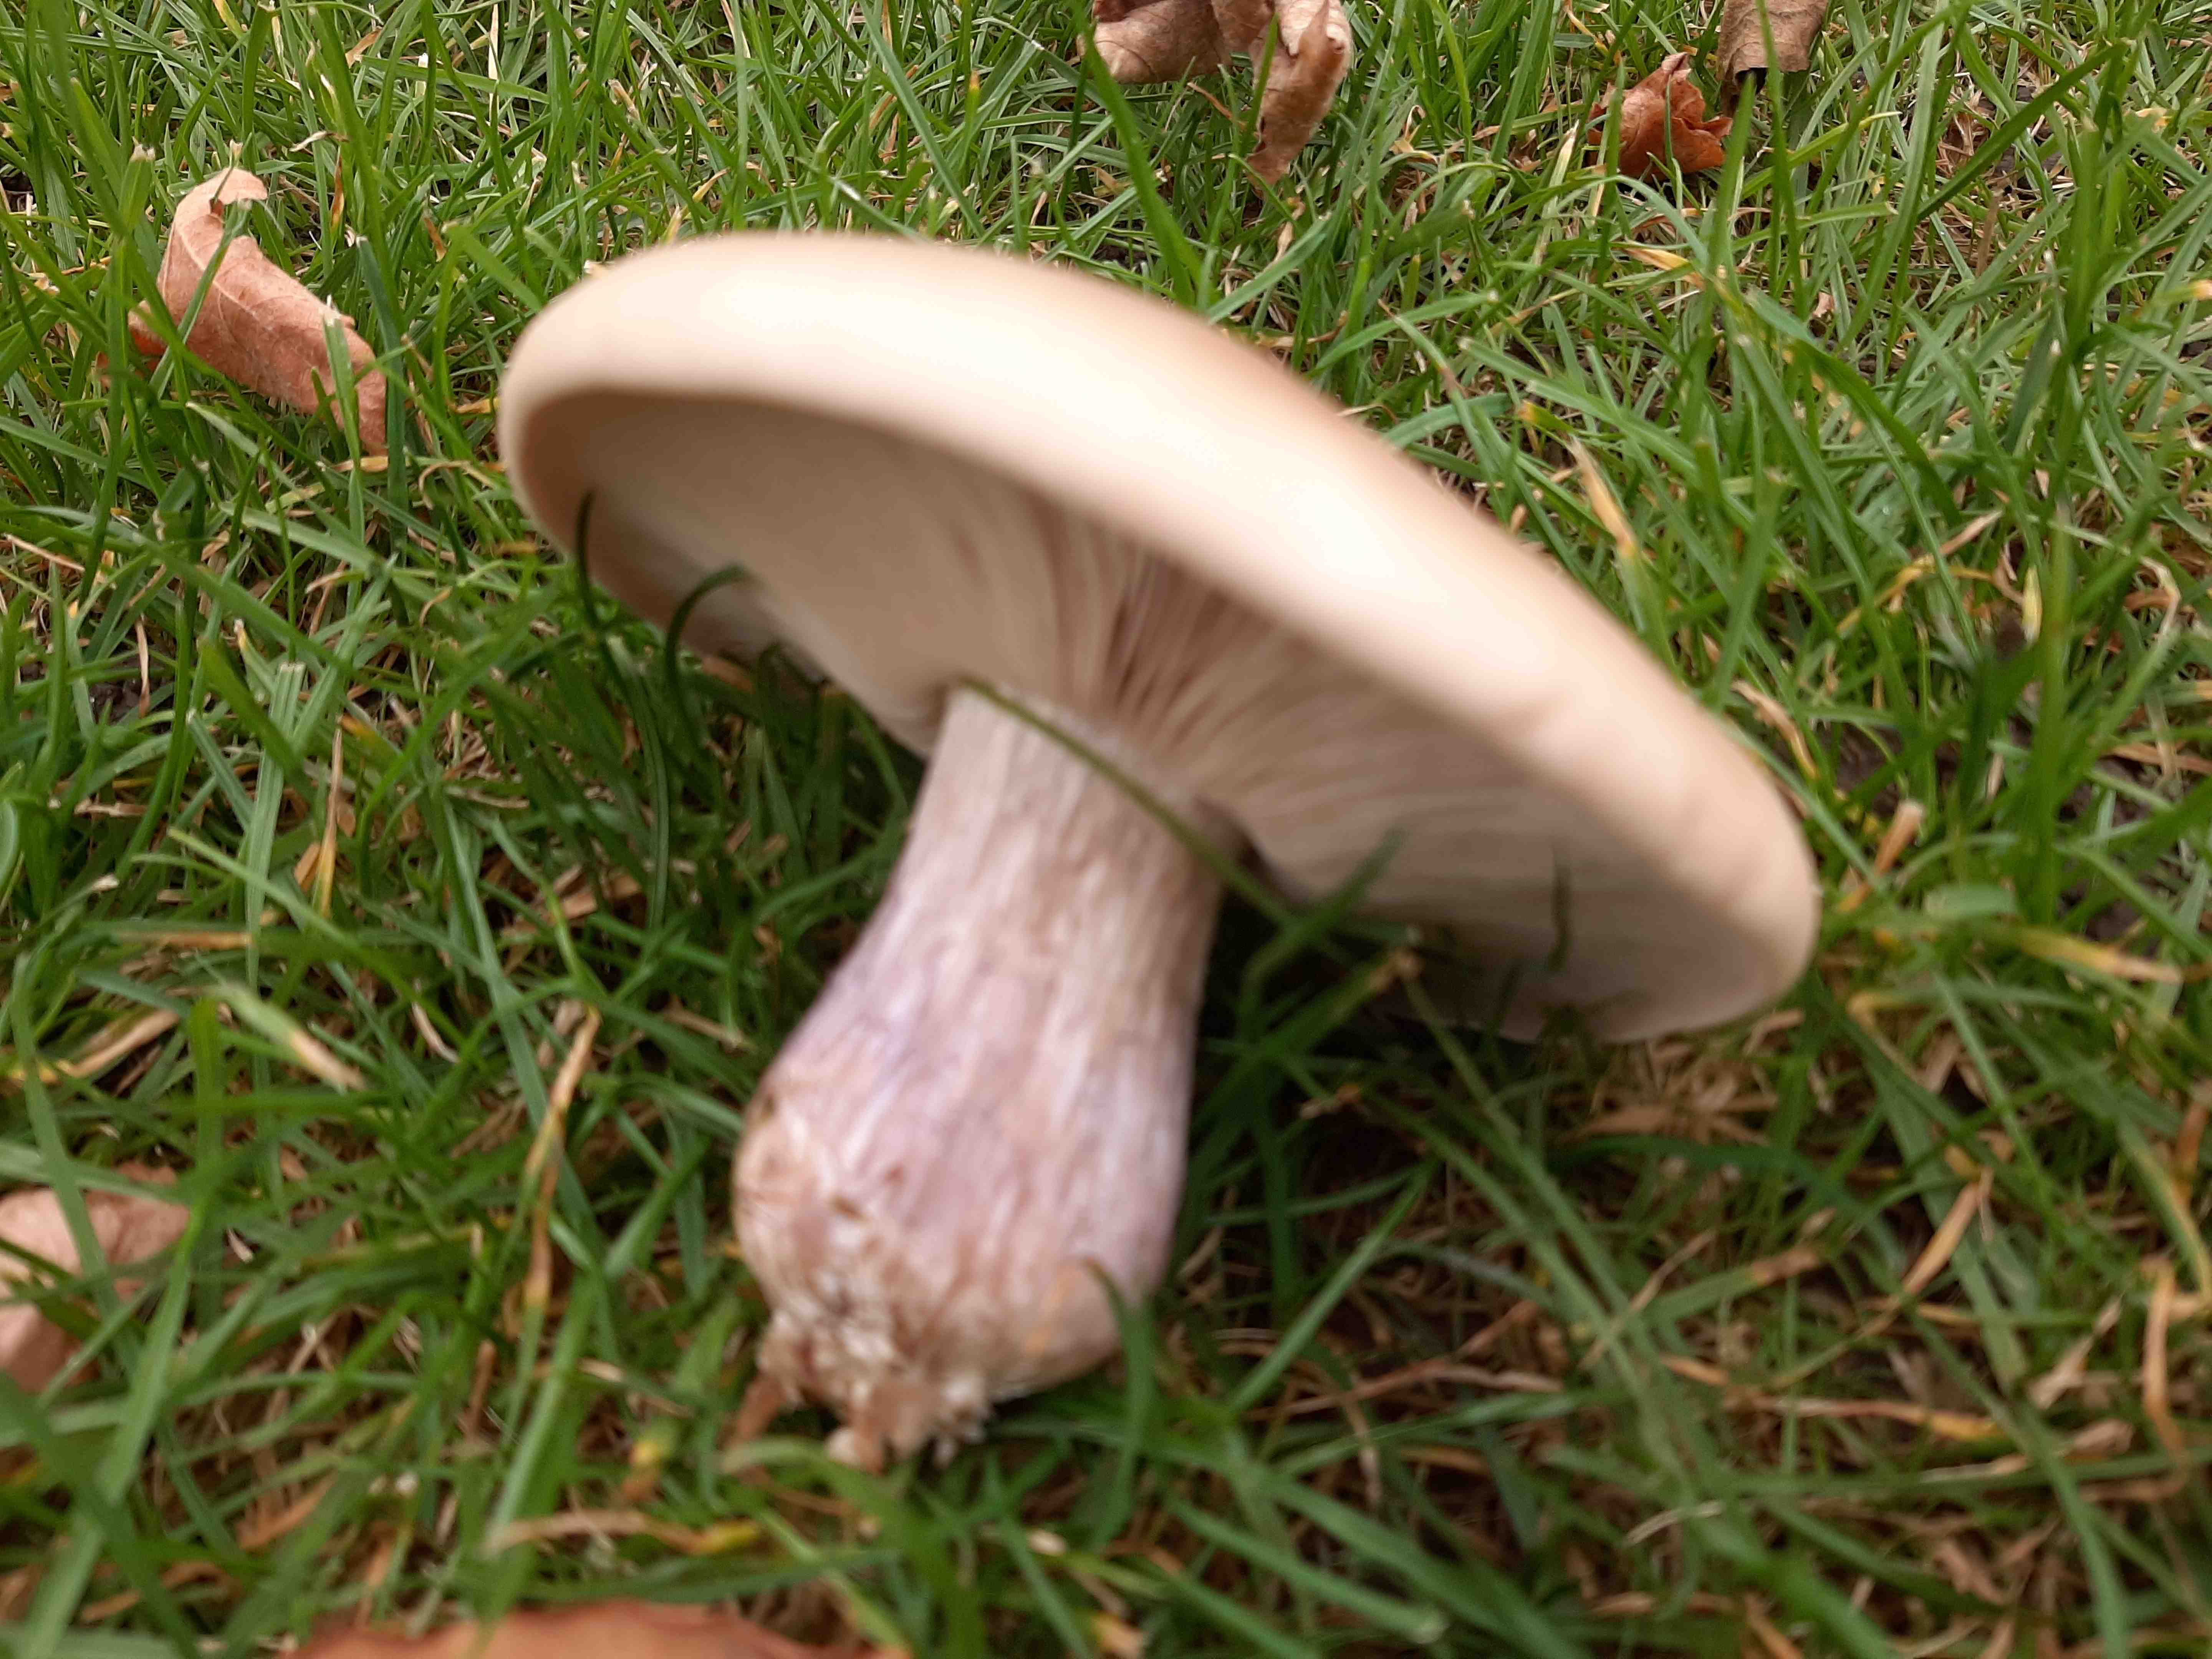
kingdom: Fungi
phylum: Basidiomycota
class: Agaricomycetes
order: Agaricales
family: Tricholomataceae
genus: Lepista
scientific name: Lepista personata
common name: bleg hekseringshat
